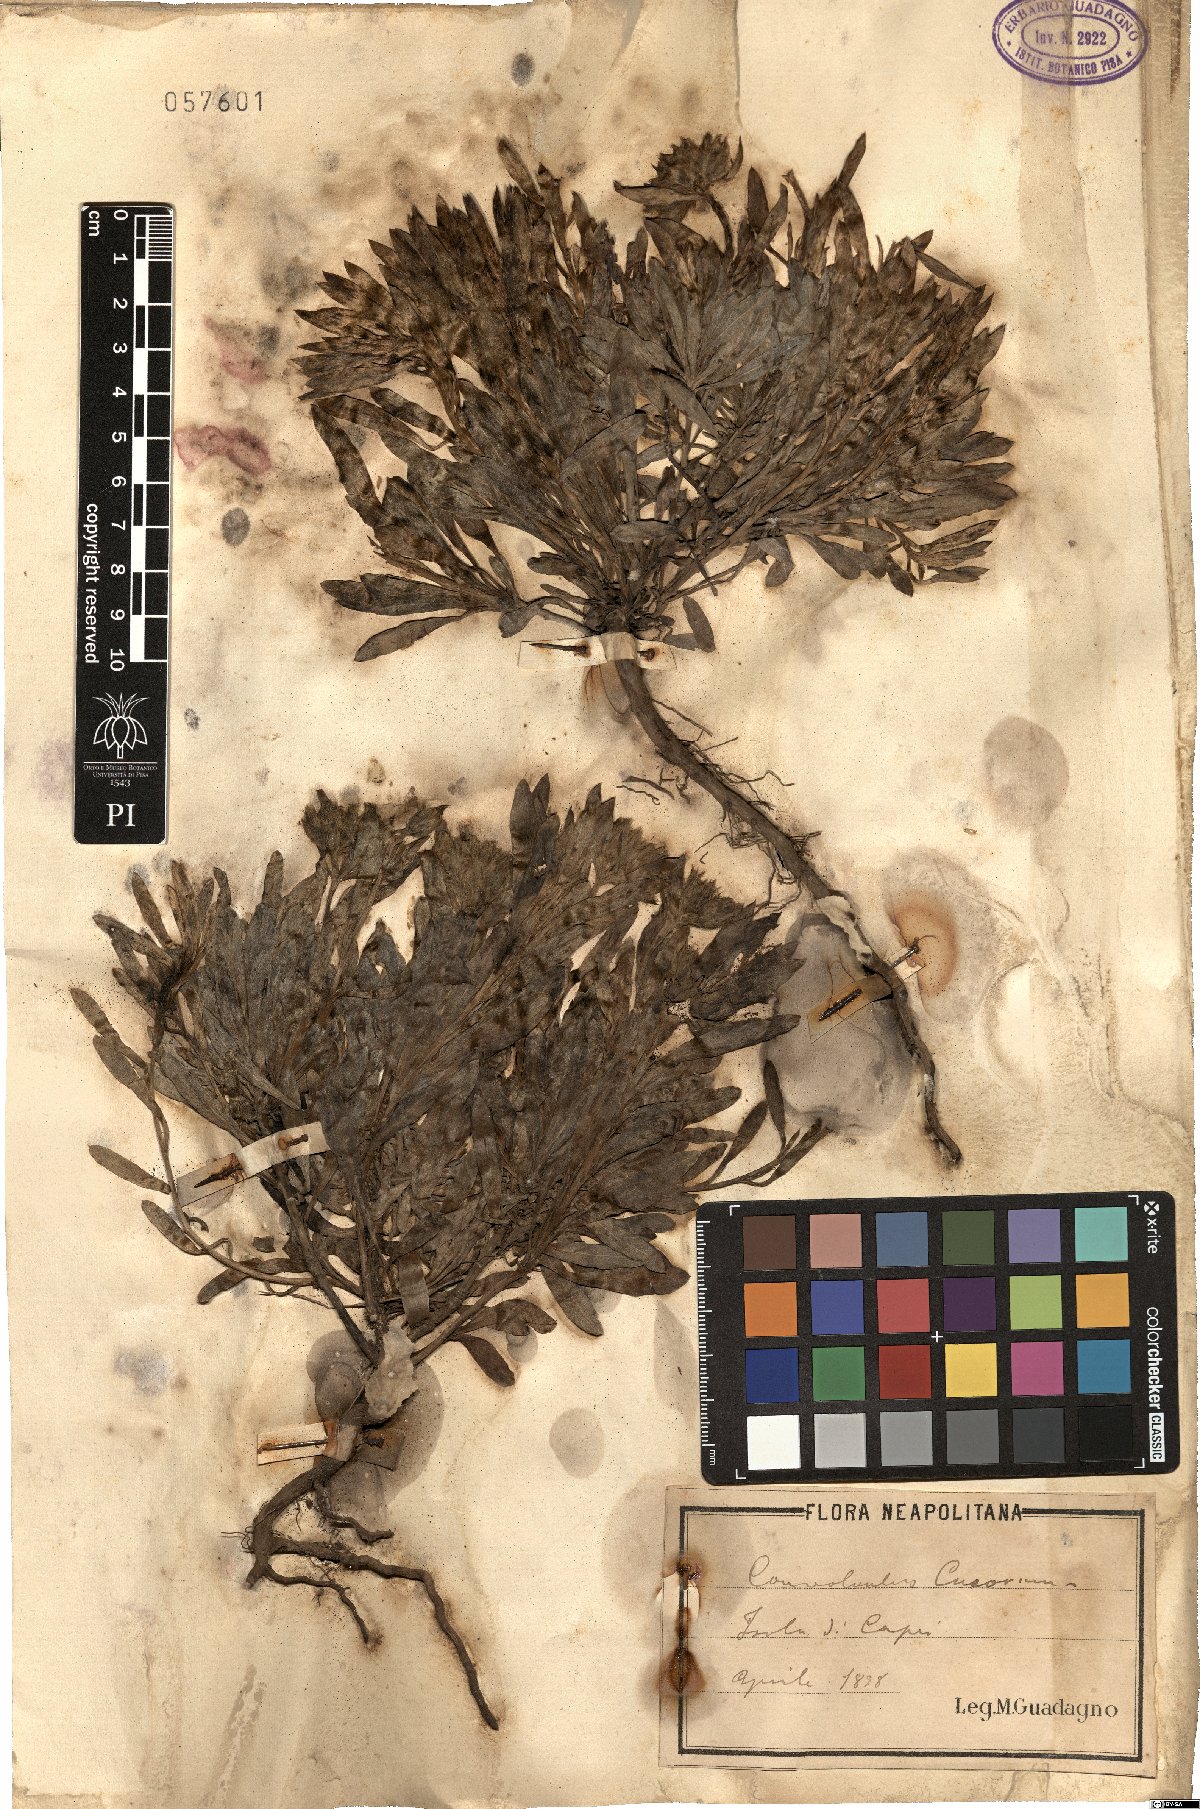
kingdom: Plantae
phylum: Tracheophyta
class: Magnoliopsida
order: Solanales
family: Convolvulaceae
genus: Convolvulus
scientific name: Convolvulus cneorum
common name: Silverbush
